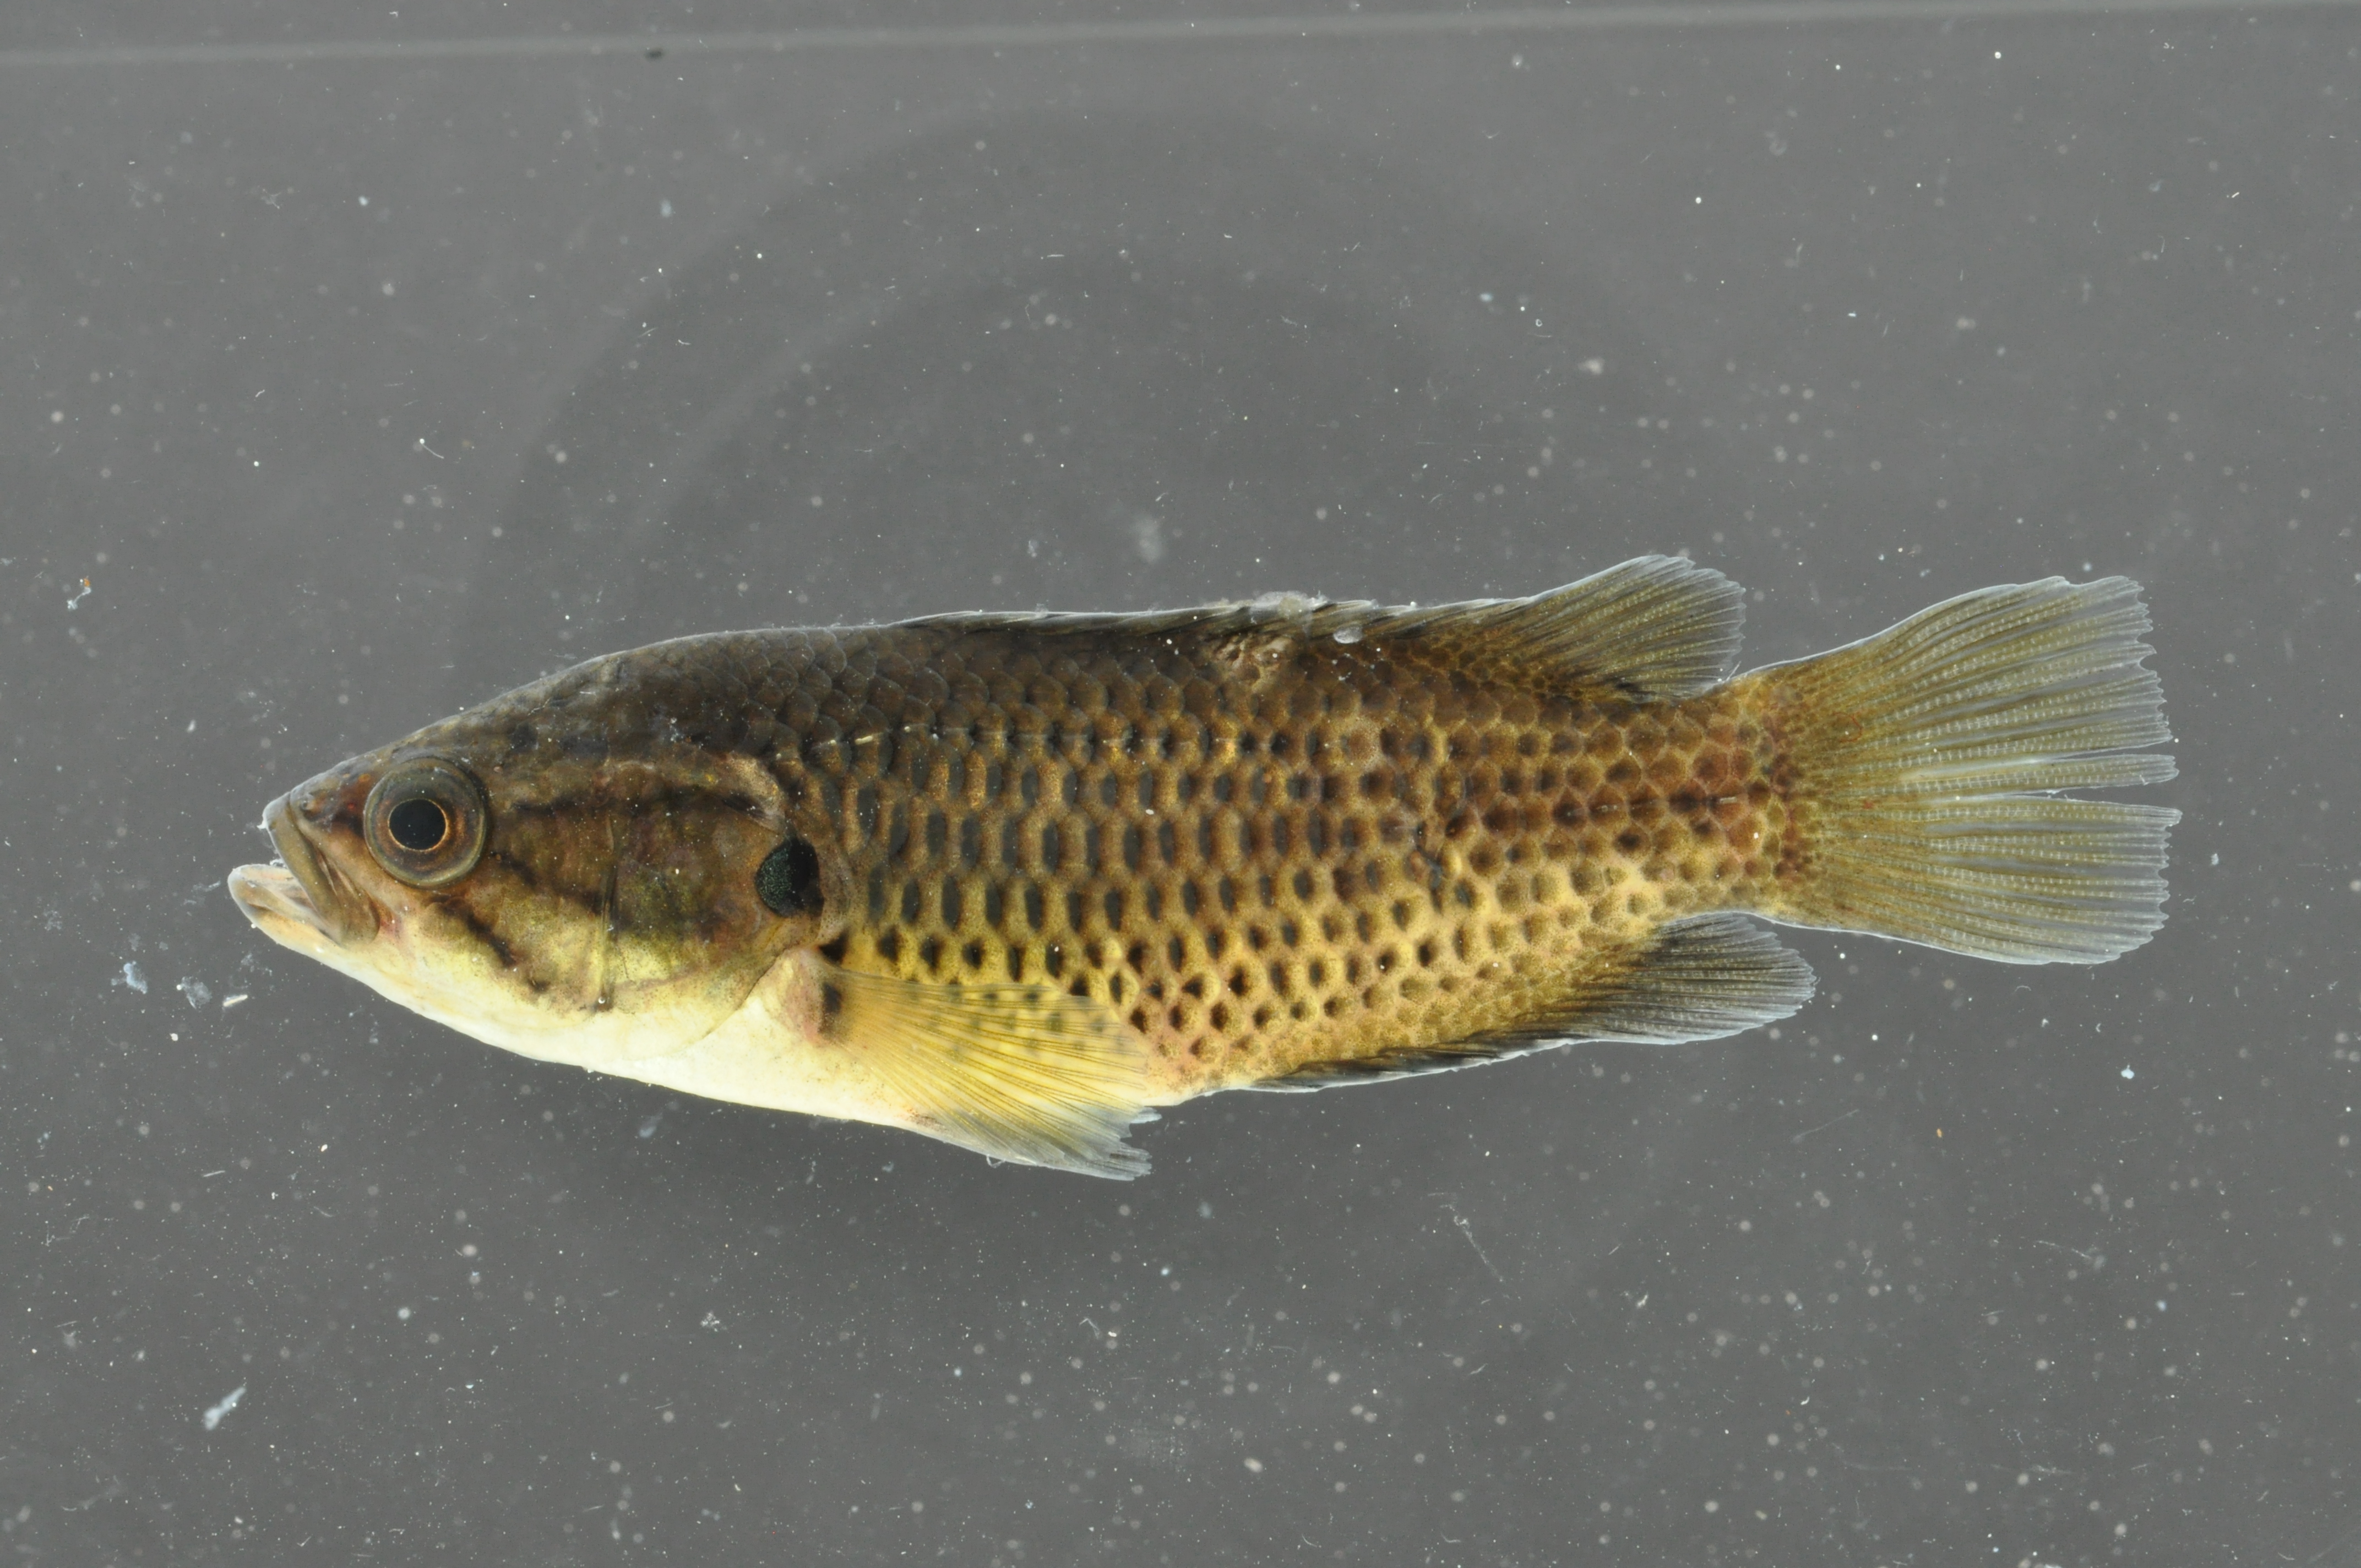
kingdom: Animalia
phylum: Chordata
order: Perciformes
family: Anabantidae
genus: Sandelia
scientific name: Sandelia capensis
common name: Cape kurper
